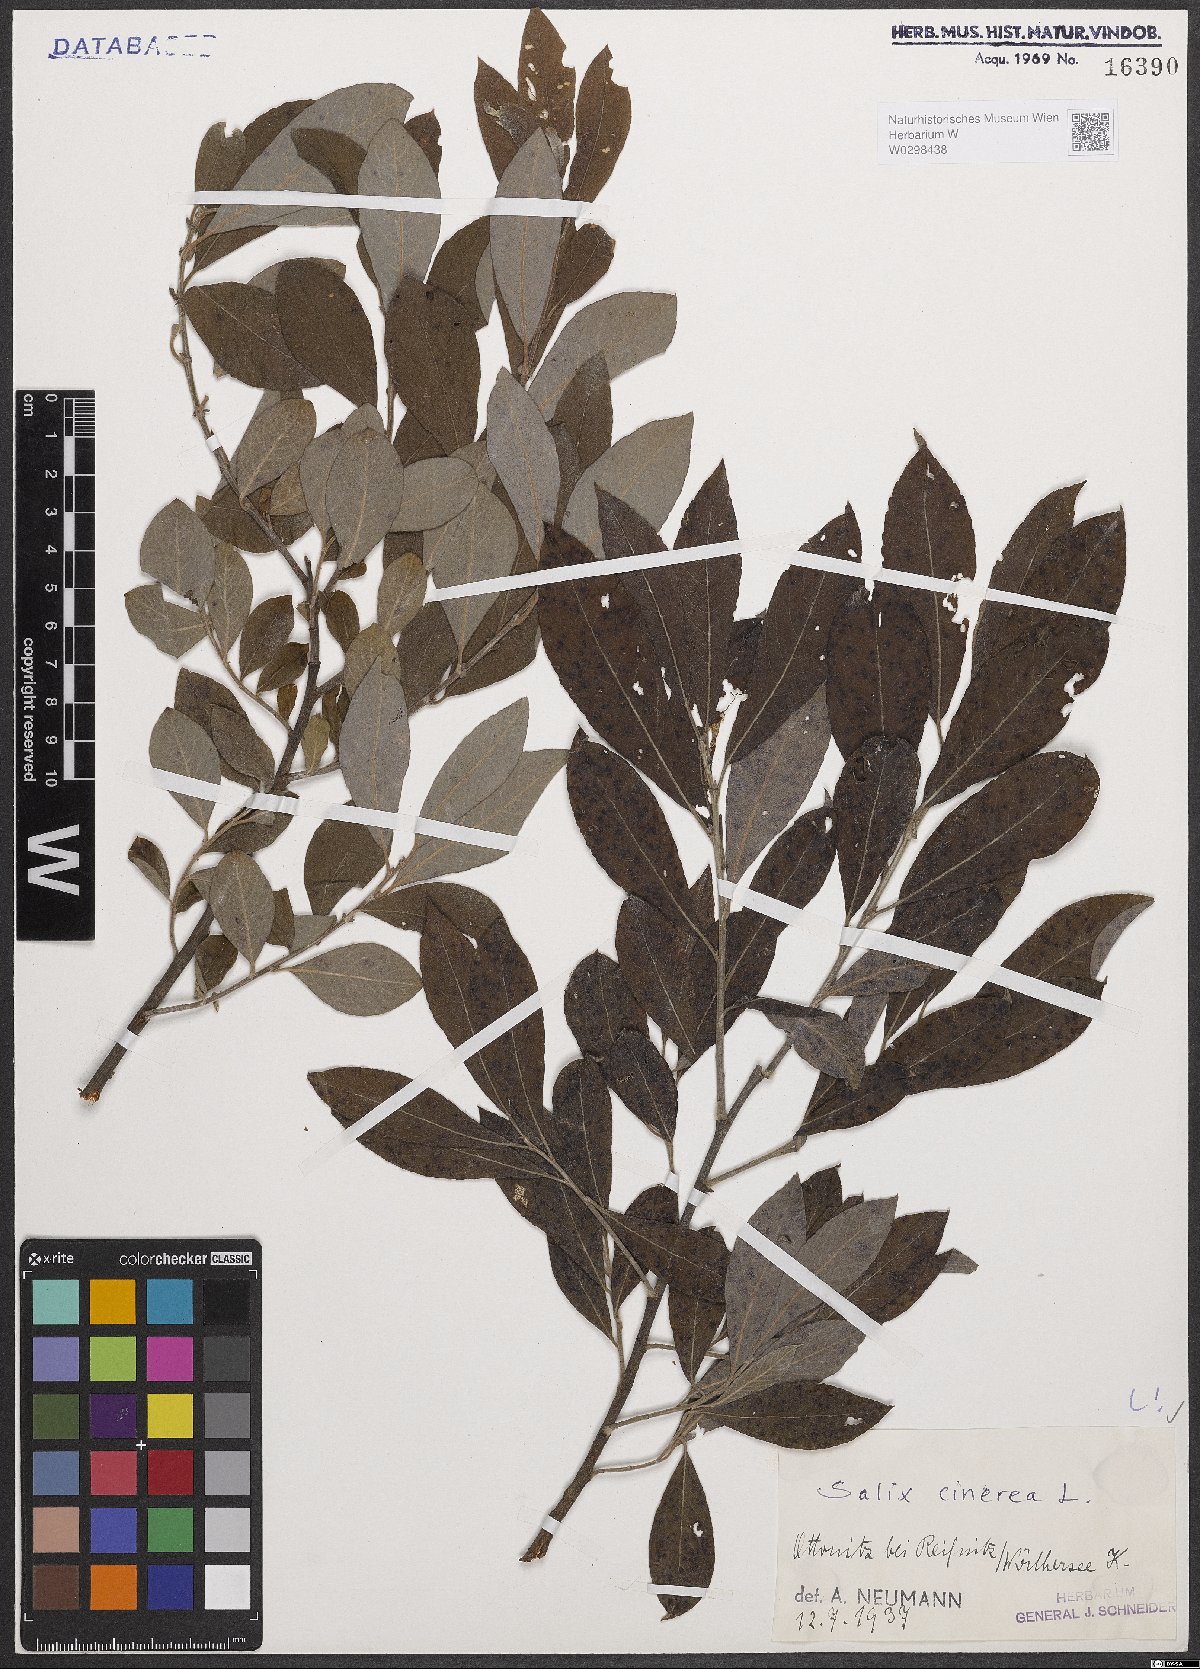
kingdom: Plantae
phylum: Tracheophyta
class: Magnoliopsida
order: Malpighiales
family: Salicaceae
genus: Salix
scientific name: Salix cinerea
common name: Common sallow
